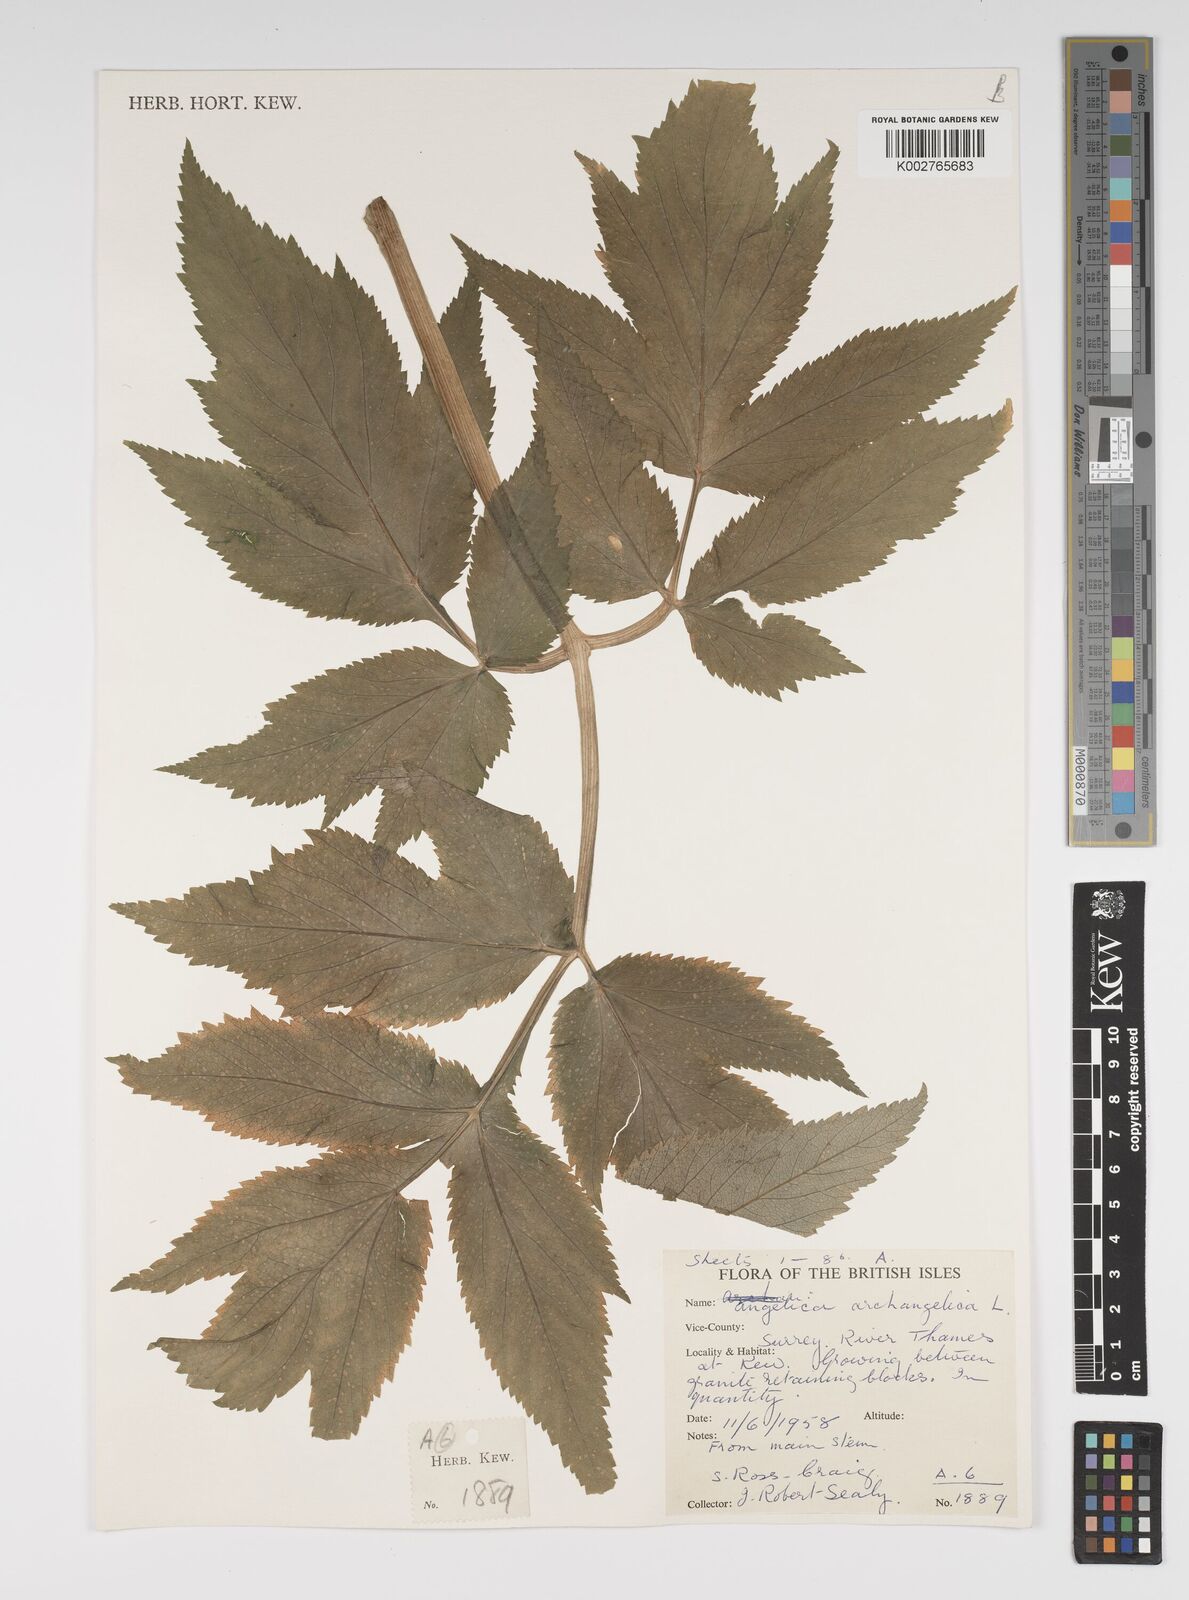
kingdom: Plantae
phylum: Tracheophyta
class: Magnoliopsida
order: Apiales
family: Apiaceae
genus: Angelica
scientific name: Angelica archangelica
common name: Garden angelica
